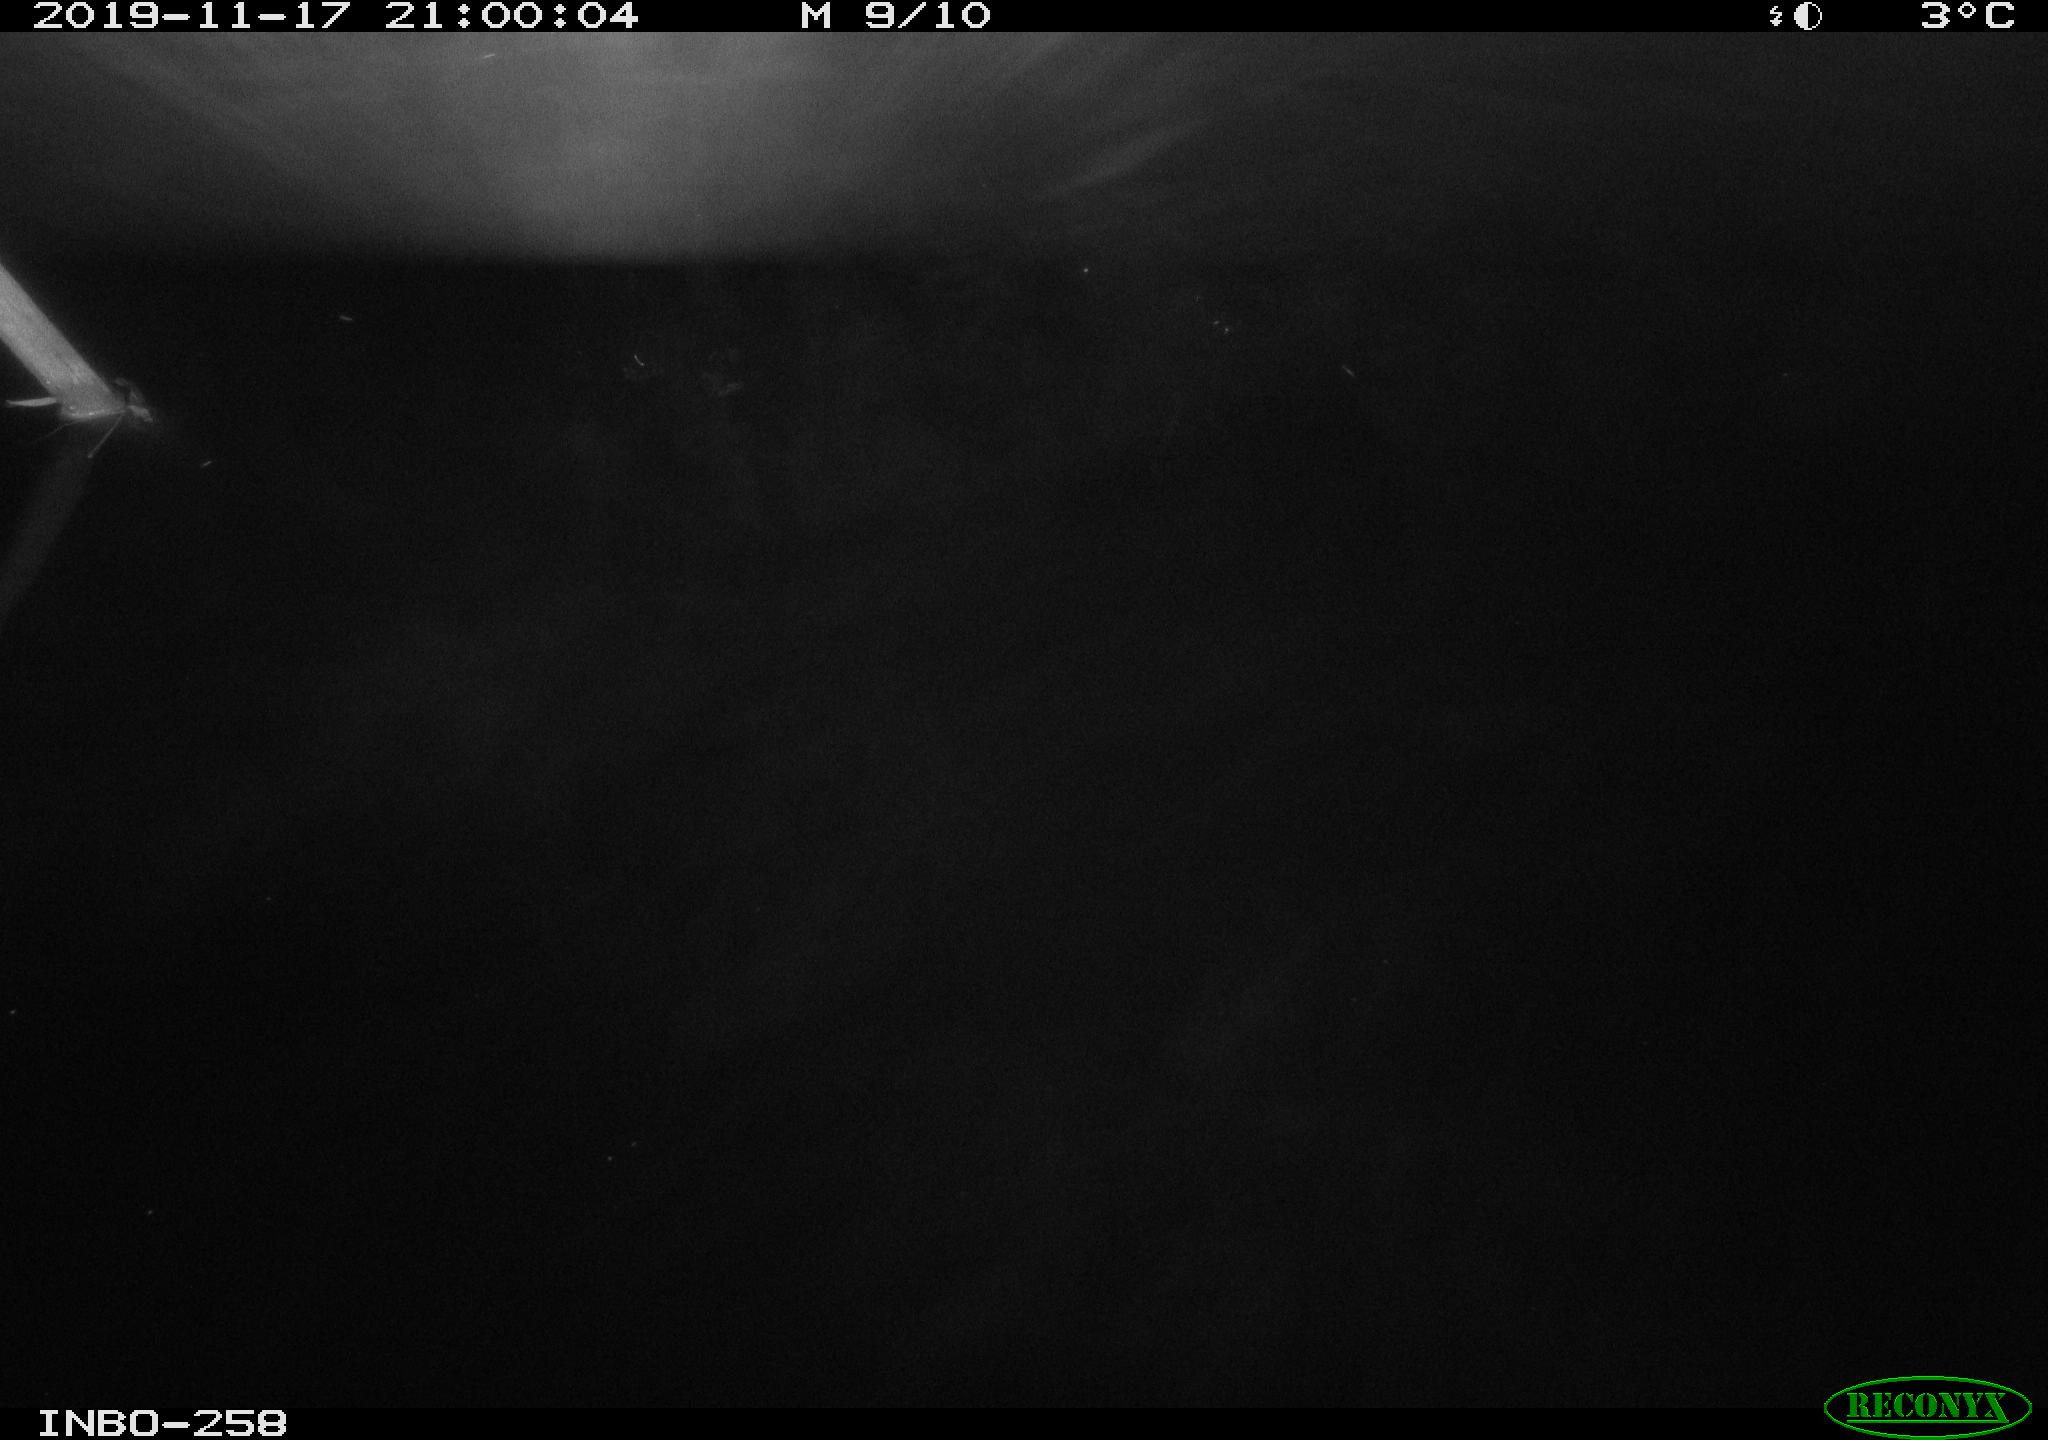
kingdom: Animalia
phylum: Chordata
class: Aves
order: Anseriformes
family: Anatidae
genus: Anas
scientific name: Anas platyrhynchos
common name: Mallard
